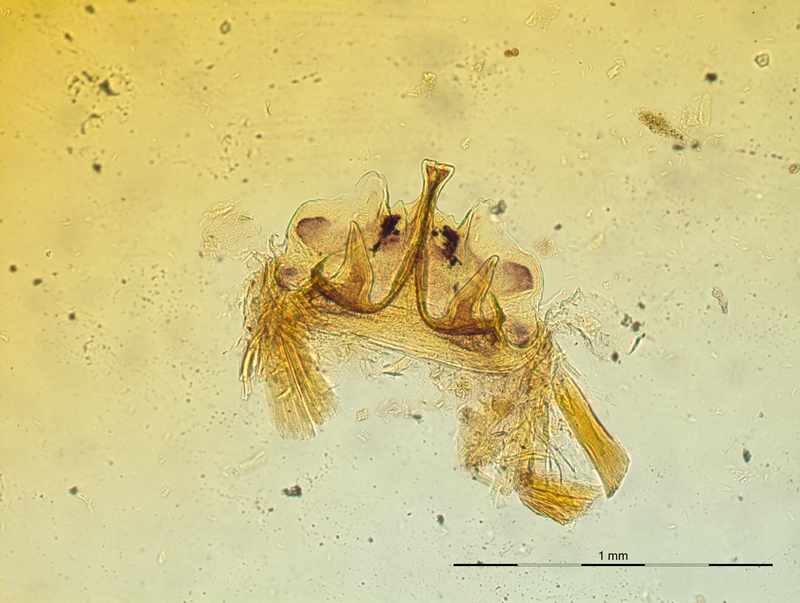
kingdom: Animalia
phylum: Arthropoda
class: Diplopoda
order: Chordeumatida
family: Craspedosomatidae
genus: Craspedosoma
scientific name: Craspedosoma rawlinsii
